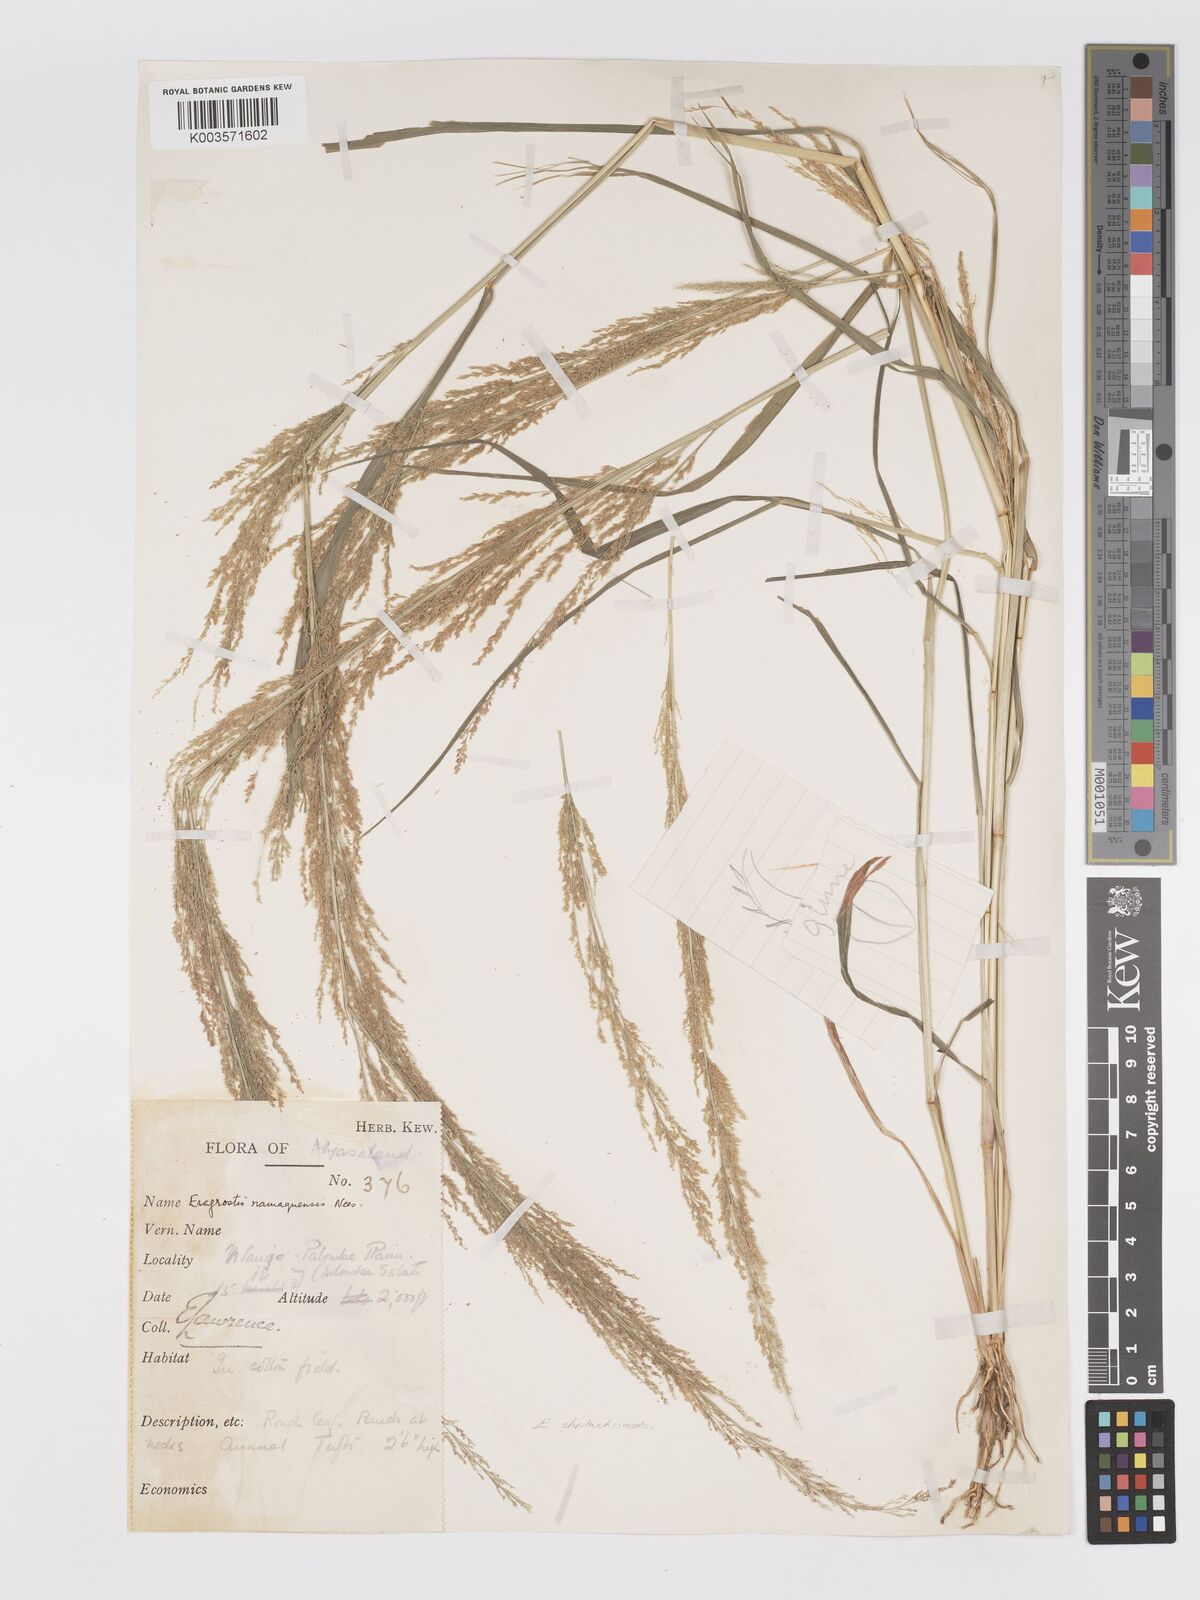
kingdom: Plantae
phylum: Tracheophyta
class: Liliopsida
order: Poales
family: Poaceae
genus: Eragrostis
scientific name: Eragrostis japonica
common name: Pond lovegrass
